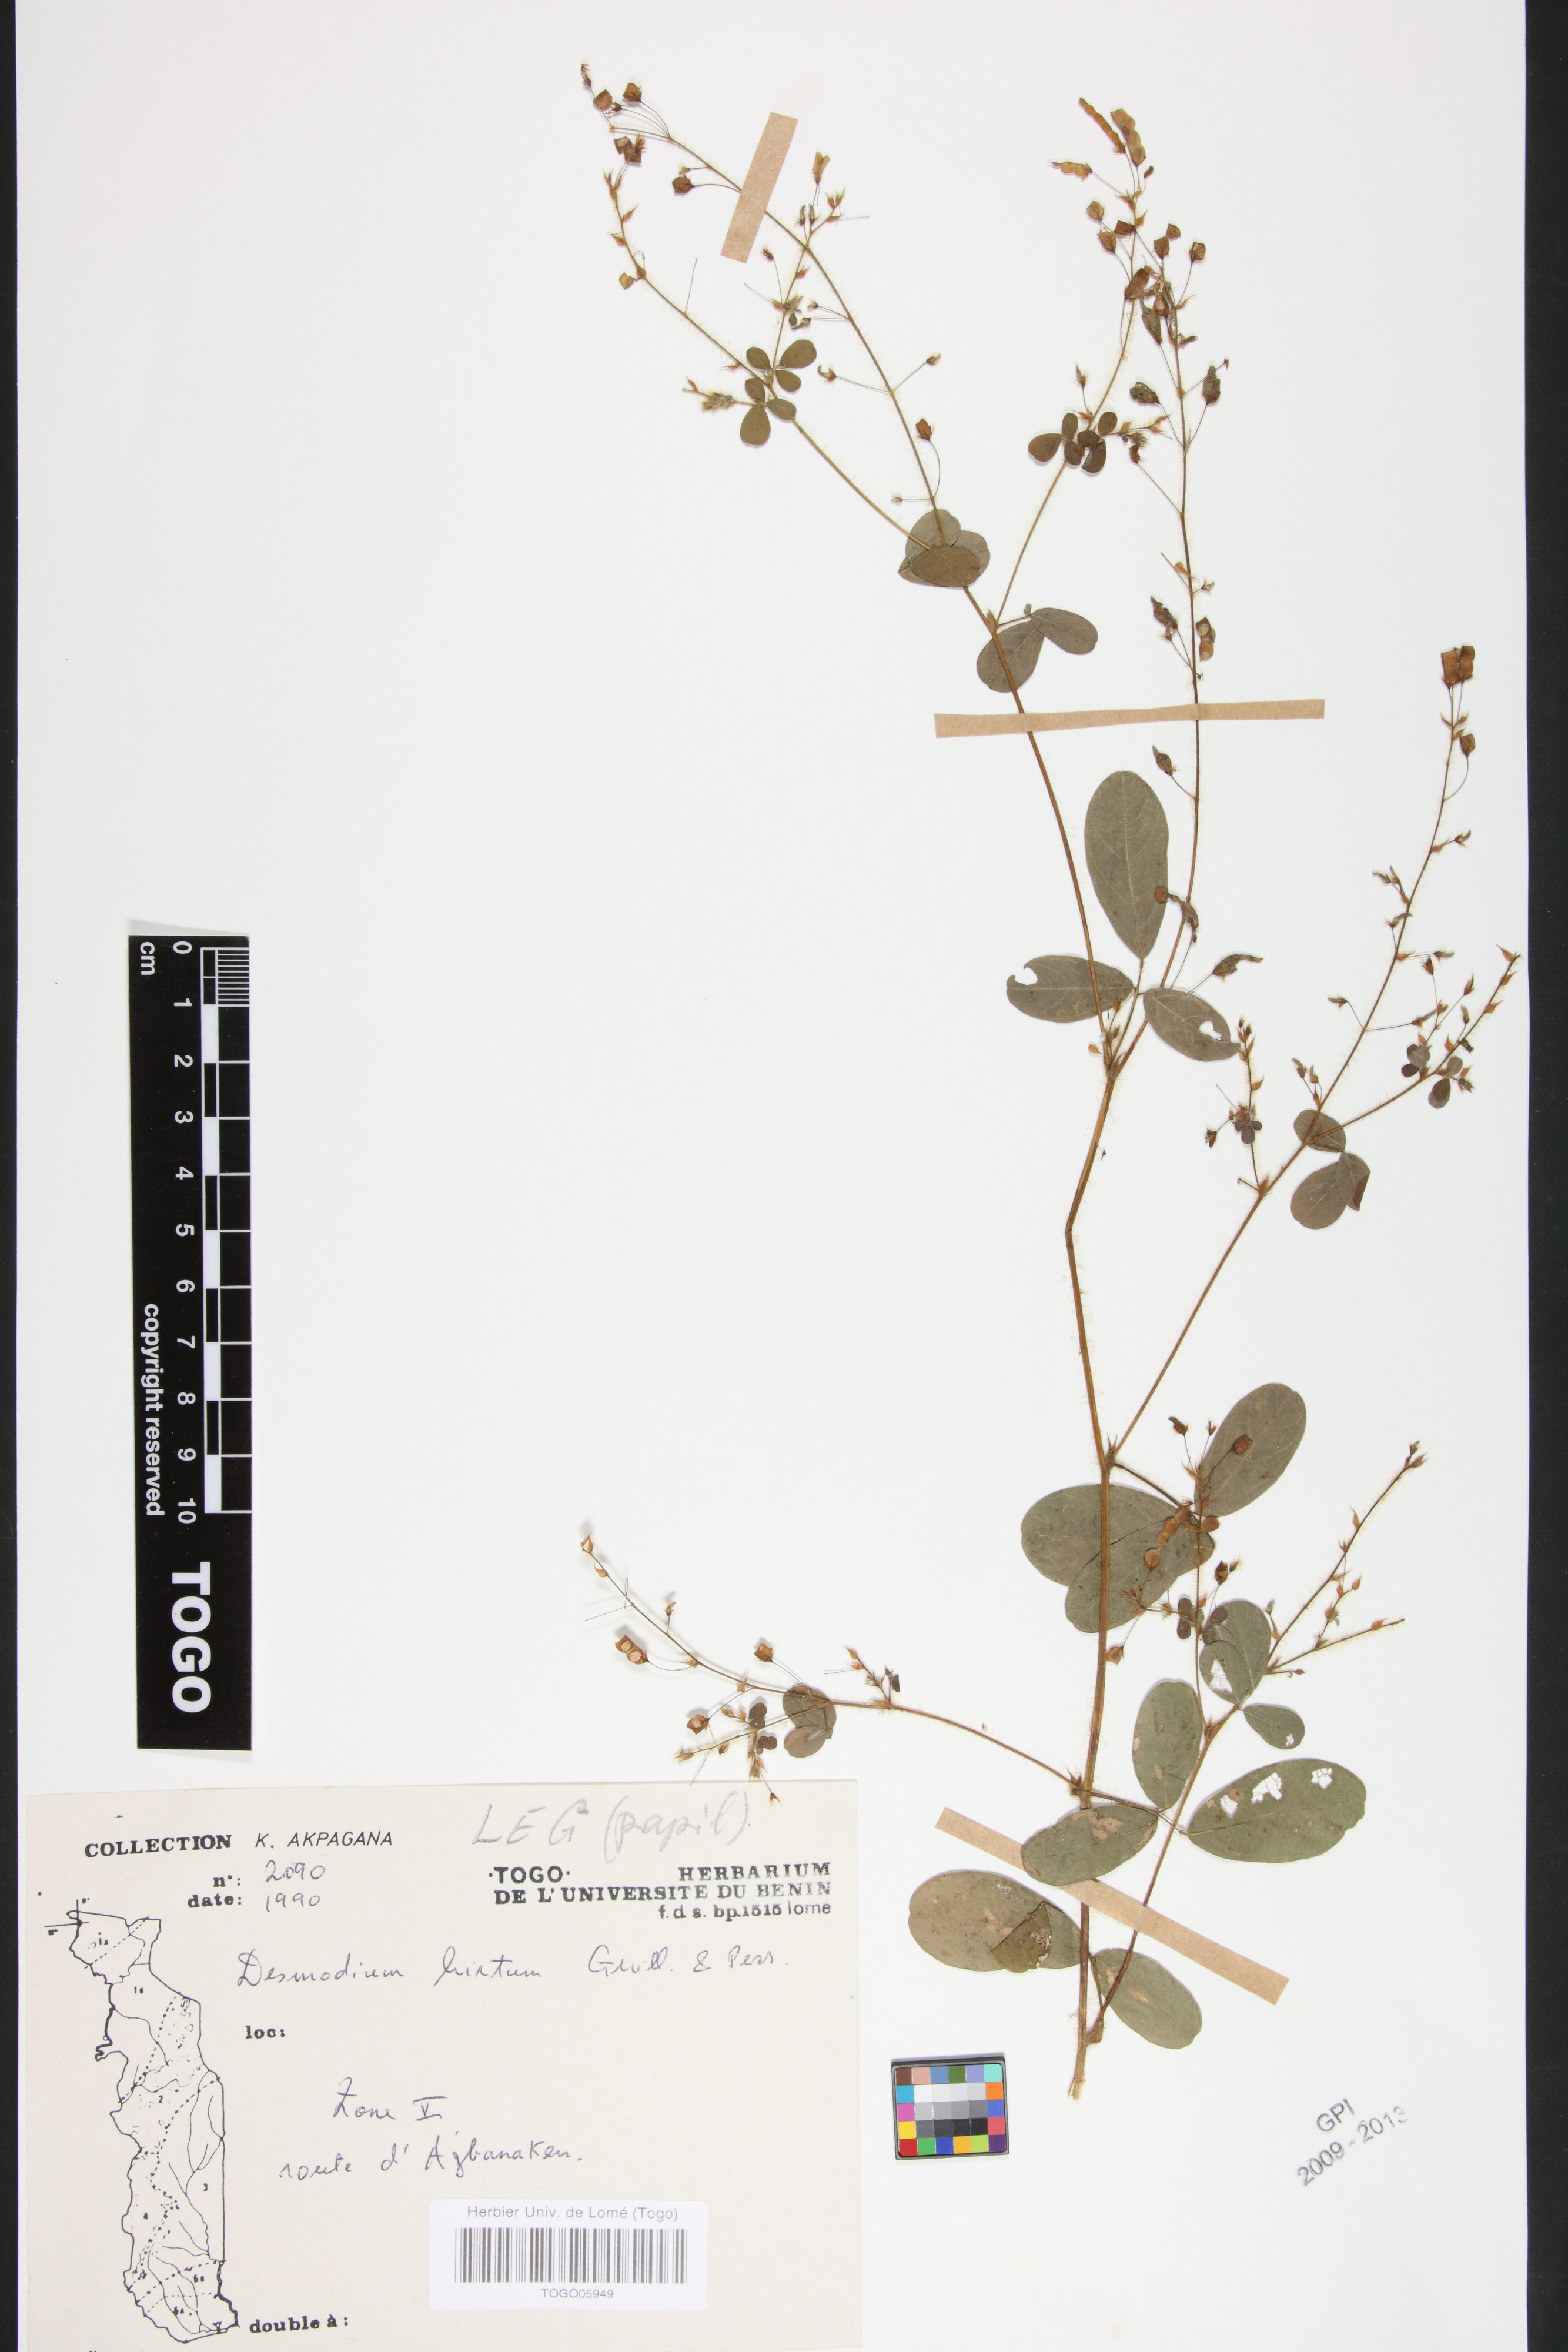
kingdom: Plantae
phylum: Tracheophyta
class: Magnoliopsida
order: Fabales
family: Fabaceae
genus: Grona
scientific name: Grona hirta
